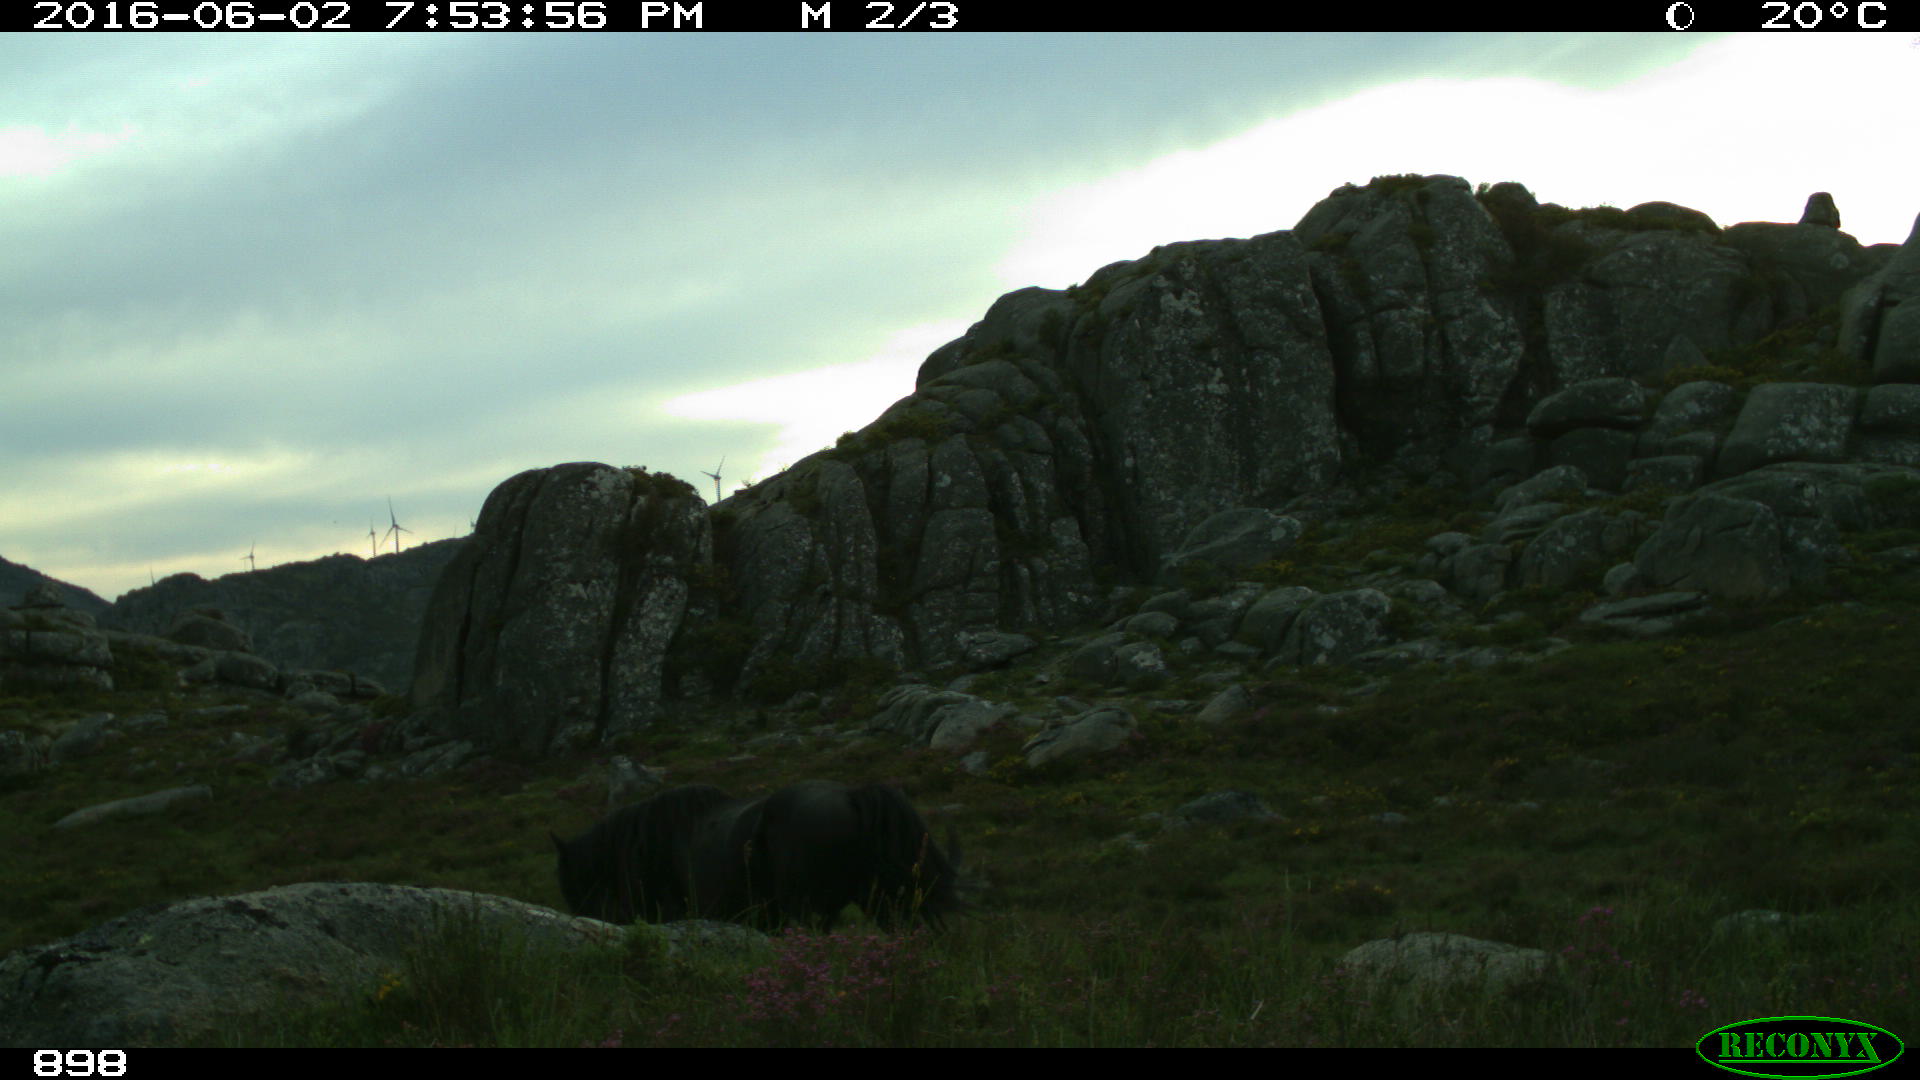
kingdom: Animalia
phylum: Chordata
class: Mammalia
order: Perissodactyla
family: Equidae
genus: Equus
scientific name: Equus caballus
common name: Horse
